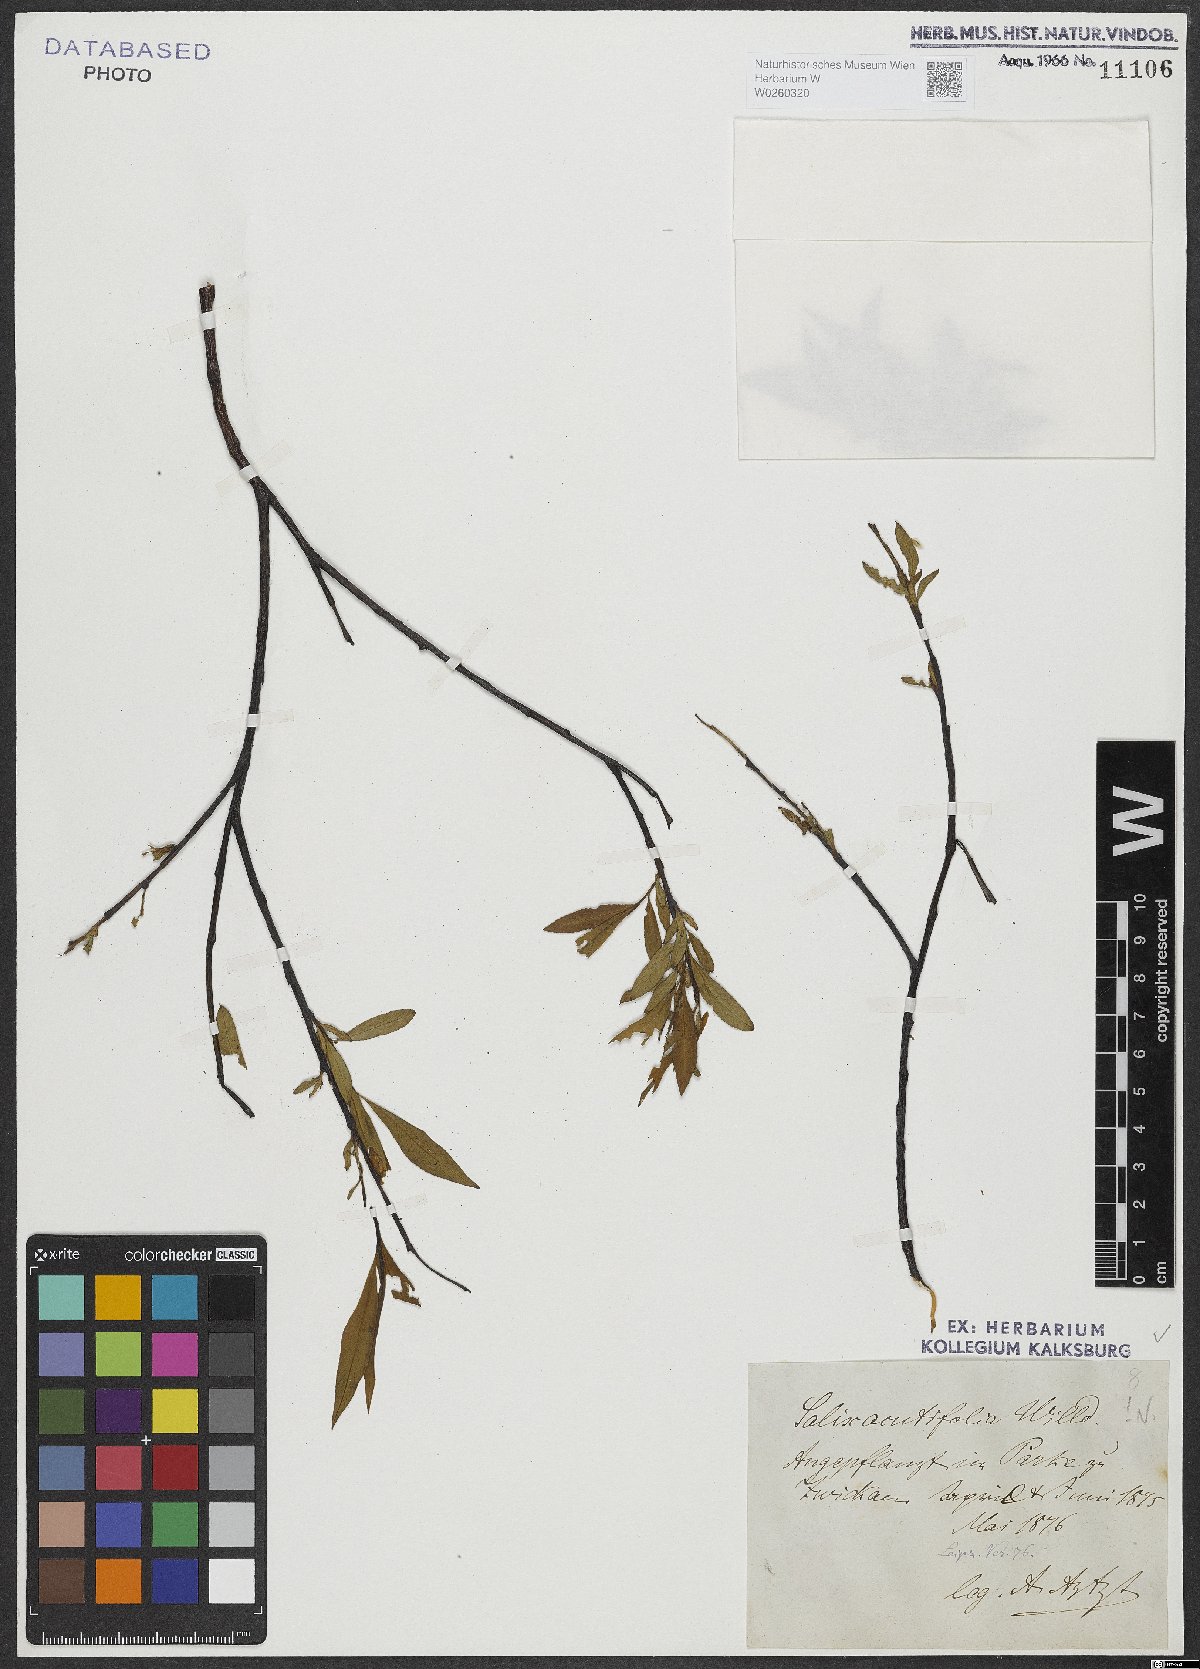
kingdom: Plantae
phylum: Tracheophyta
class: Magnoliopsida
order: Malpighiales
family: Salicaceae
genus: Salix
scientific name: Salix acutifolia
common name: Siberian violet-willow
